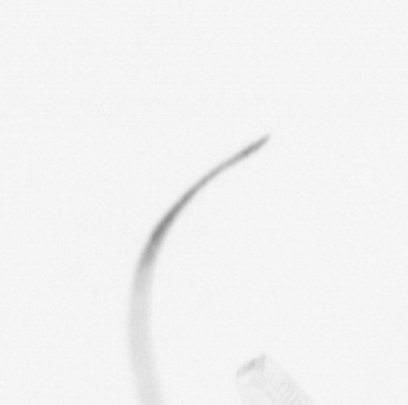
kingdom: Chromista
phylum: Ochrophyta
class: Bacillariophyceae
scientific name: Bacillariophyceae
